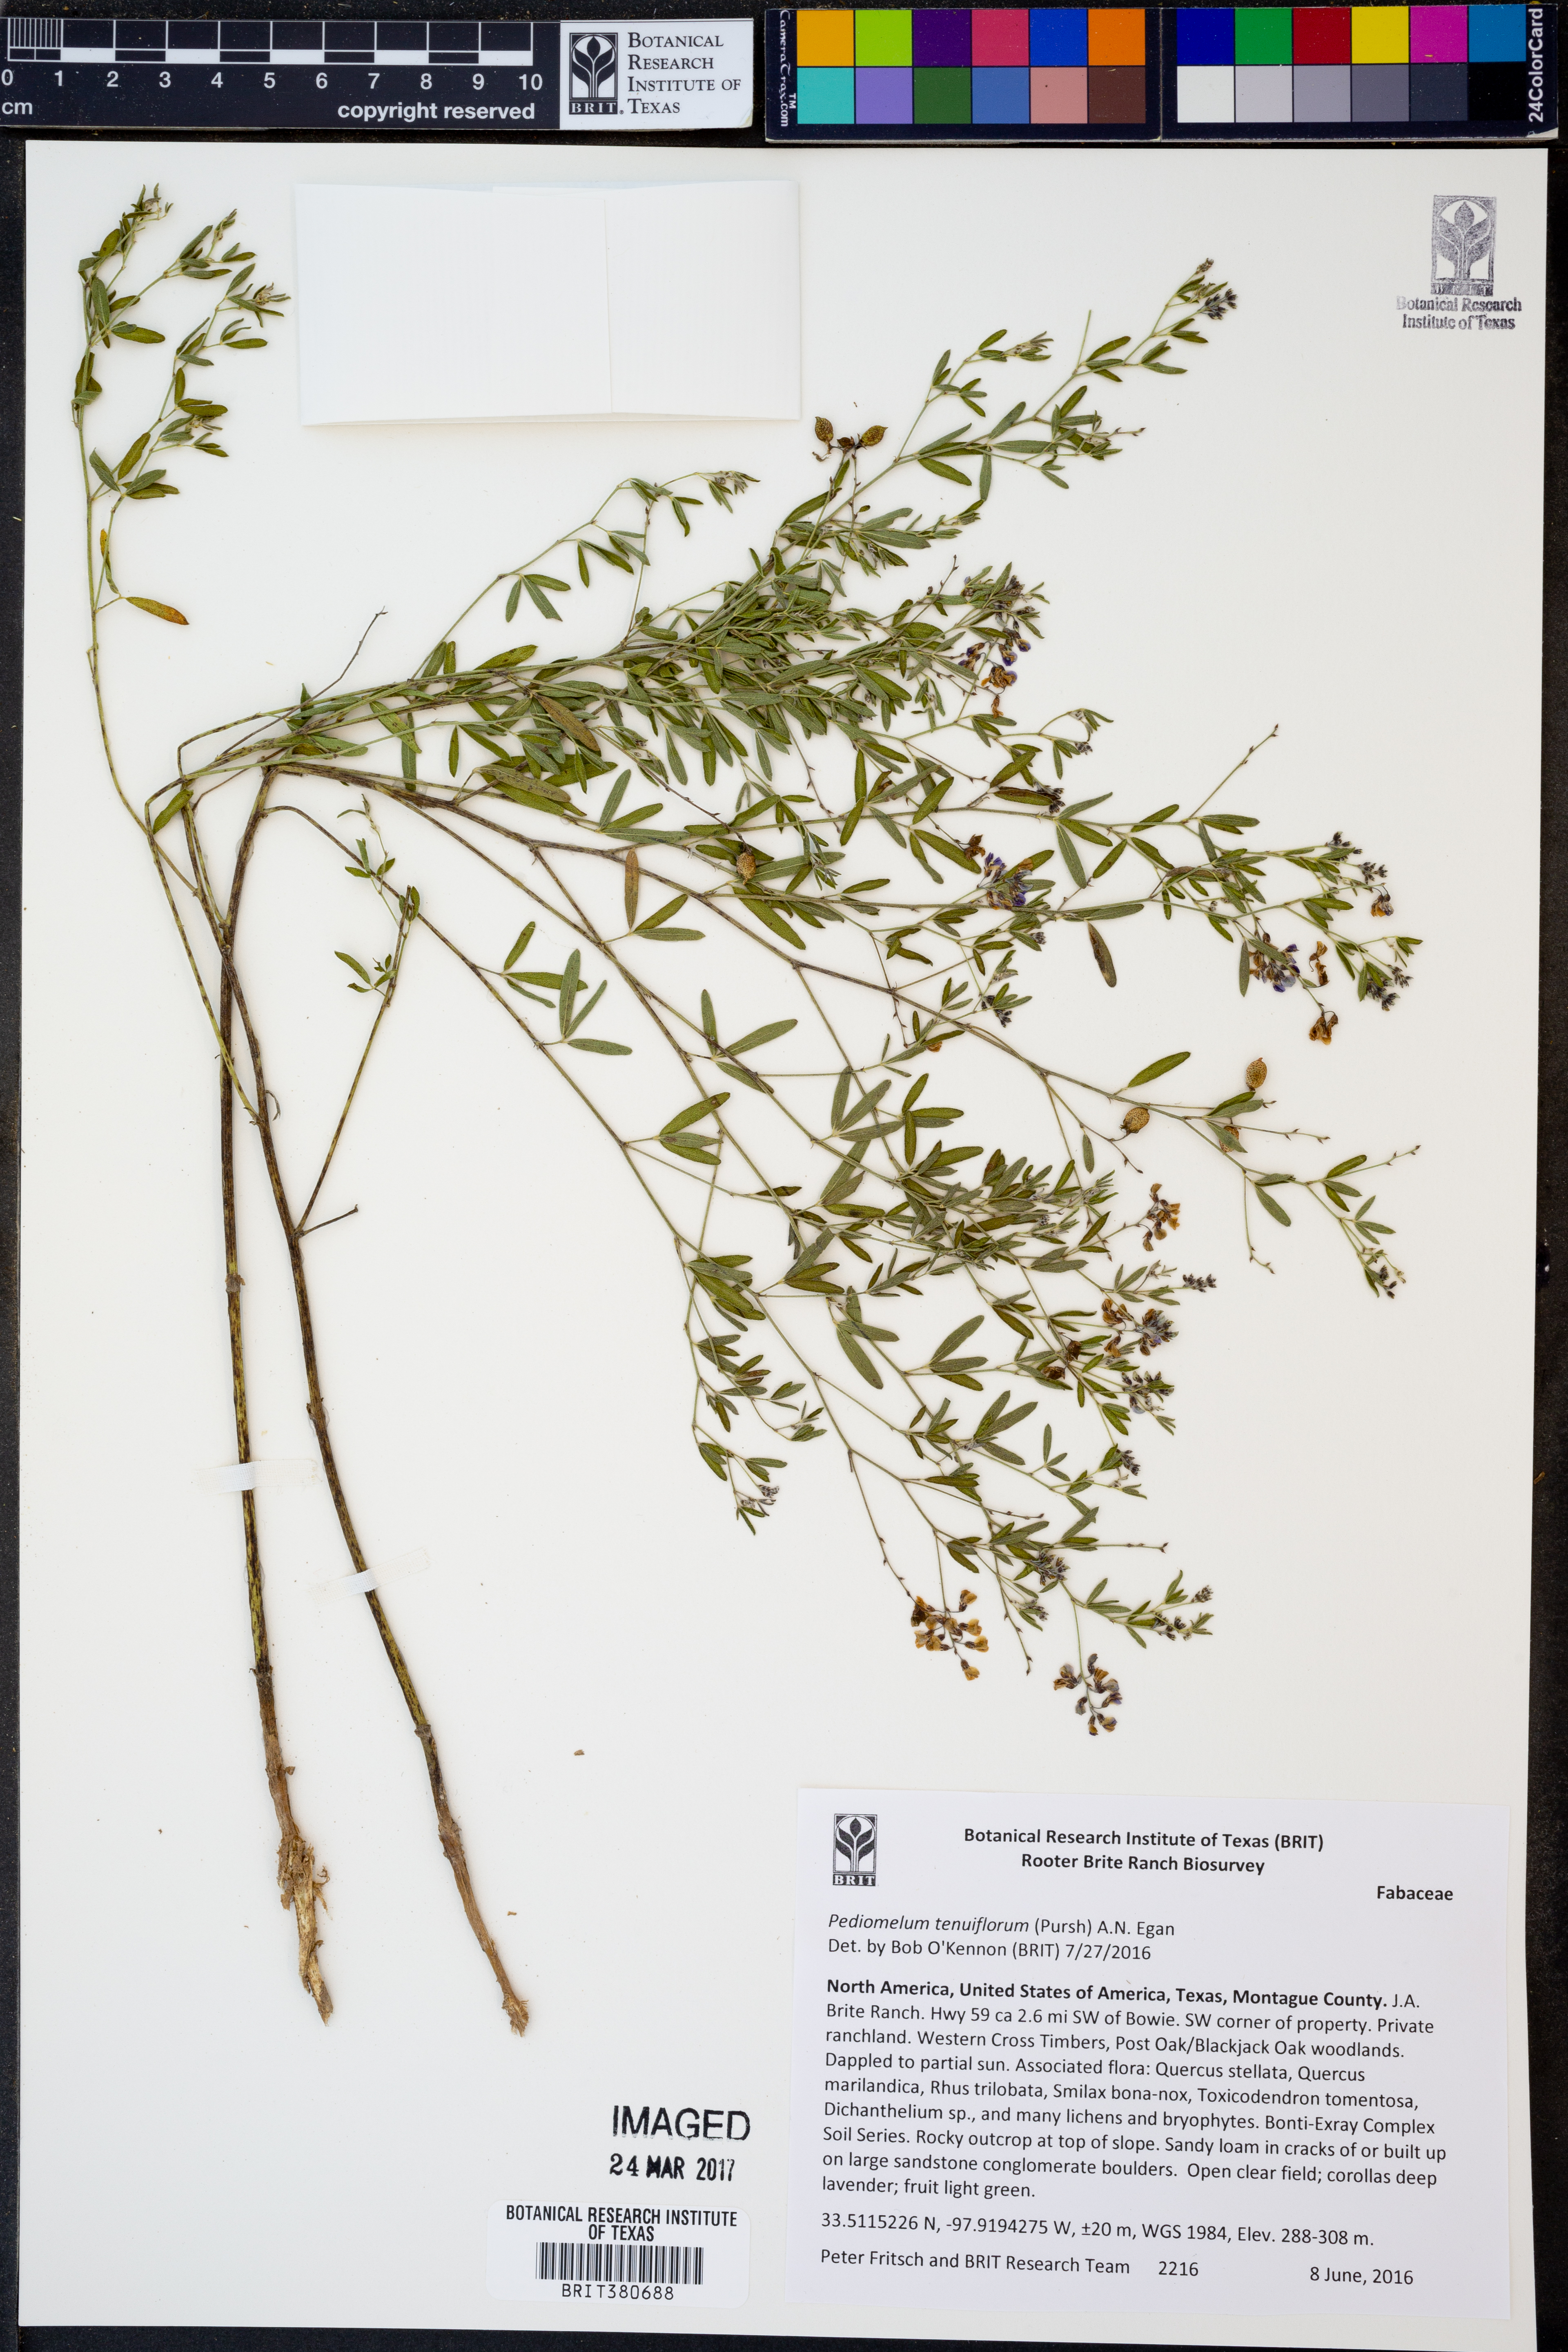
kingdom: Plantae
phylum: Tracheophyta
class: Magnoliopsida
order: Fabales
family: Fabaceae
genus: Pediomelum
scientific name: Pediomelum tenuiflorum
